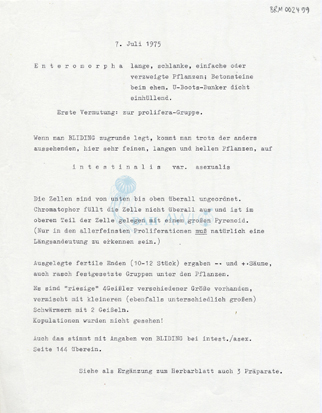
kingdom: Plantae
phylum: Chlorophyta
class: Ulvophyceae
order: Ulvales
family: Ulvaceae
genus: Ulva
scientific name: Ulva intestinalis
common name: Gut weed
